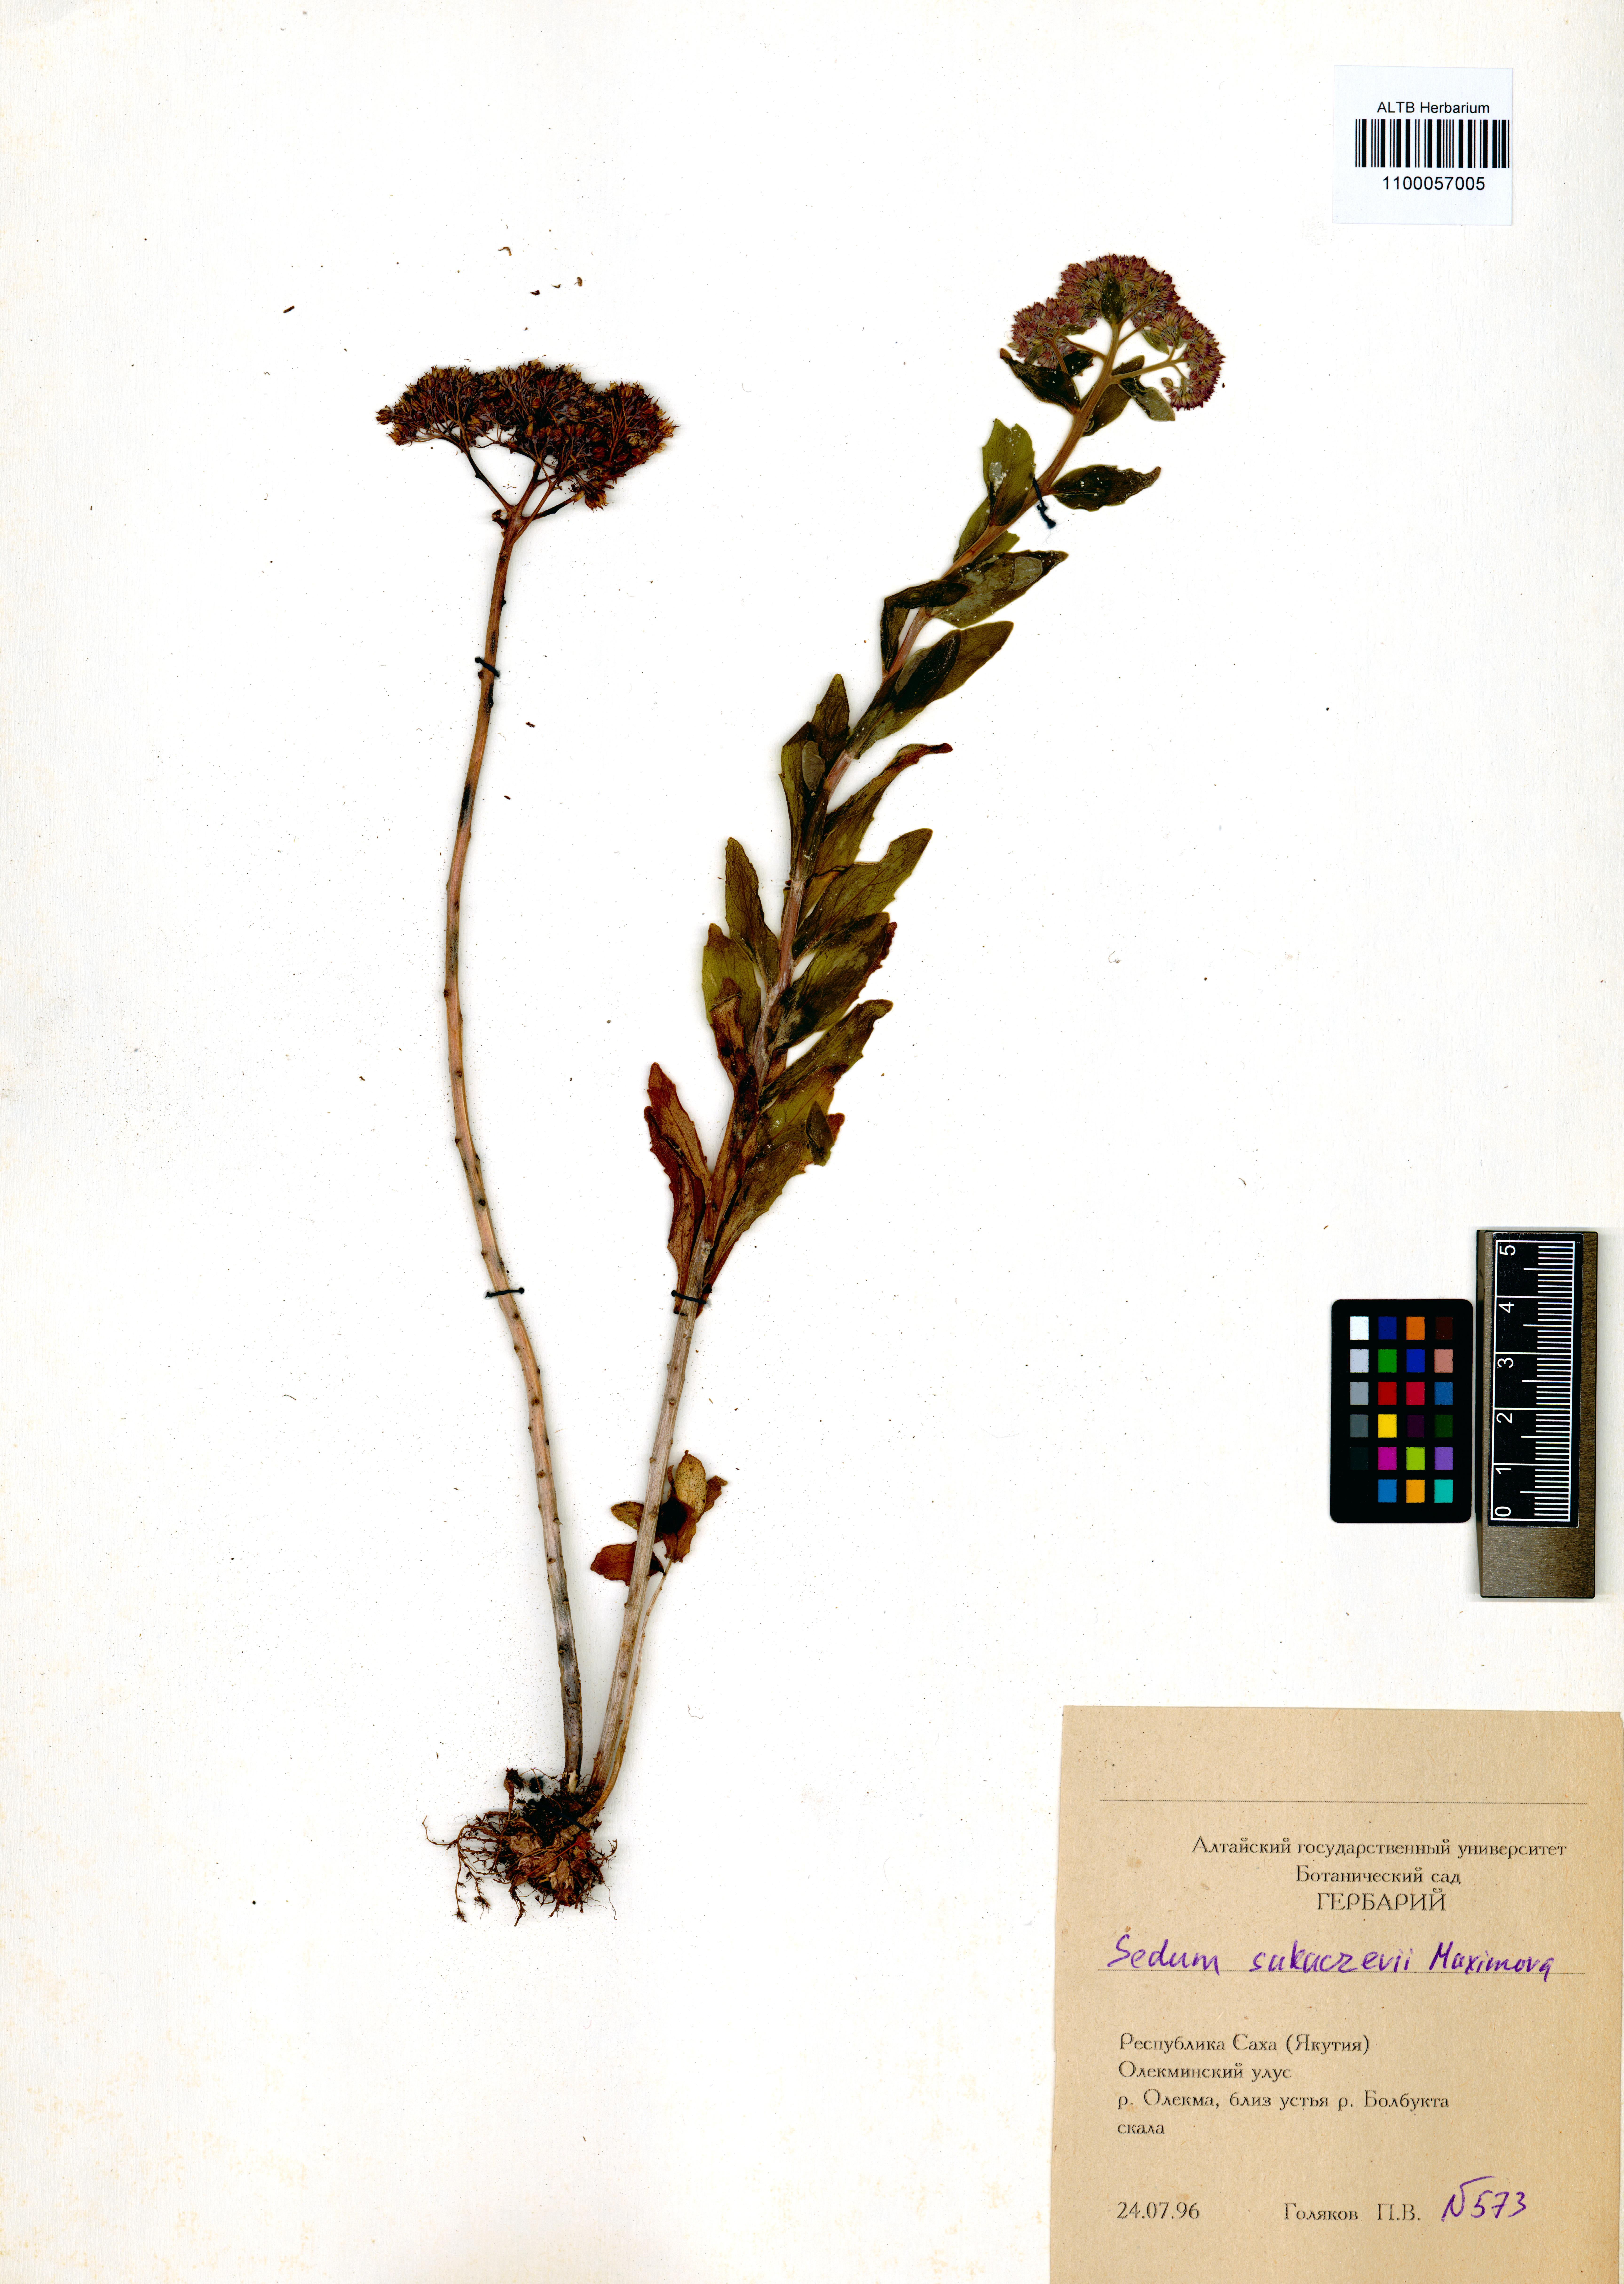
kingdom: Plantae
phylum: Tracheophyta
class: Magnoliopsida
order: Saxifragales
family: Crassulaceae
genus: Hylotelephium
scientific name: Hylotelephium pallescens
